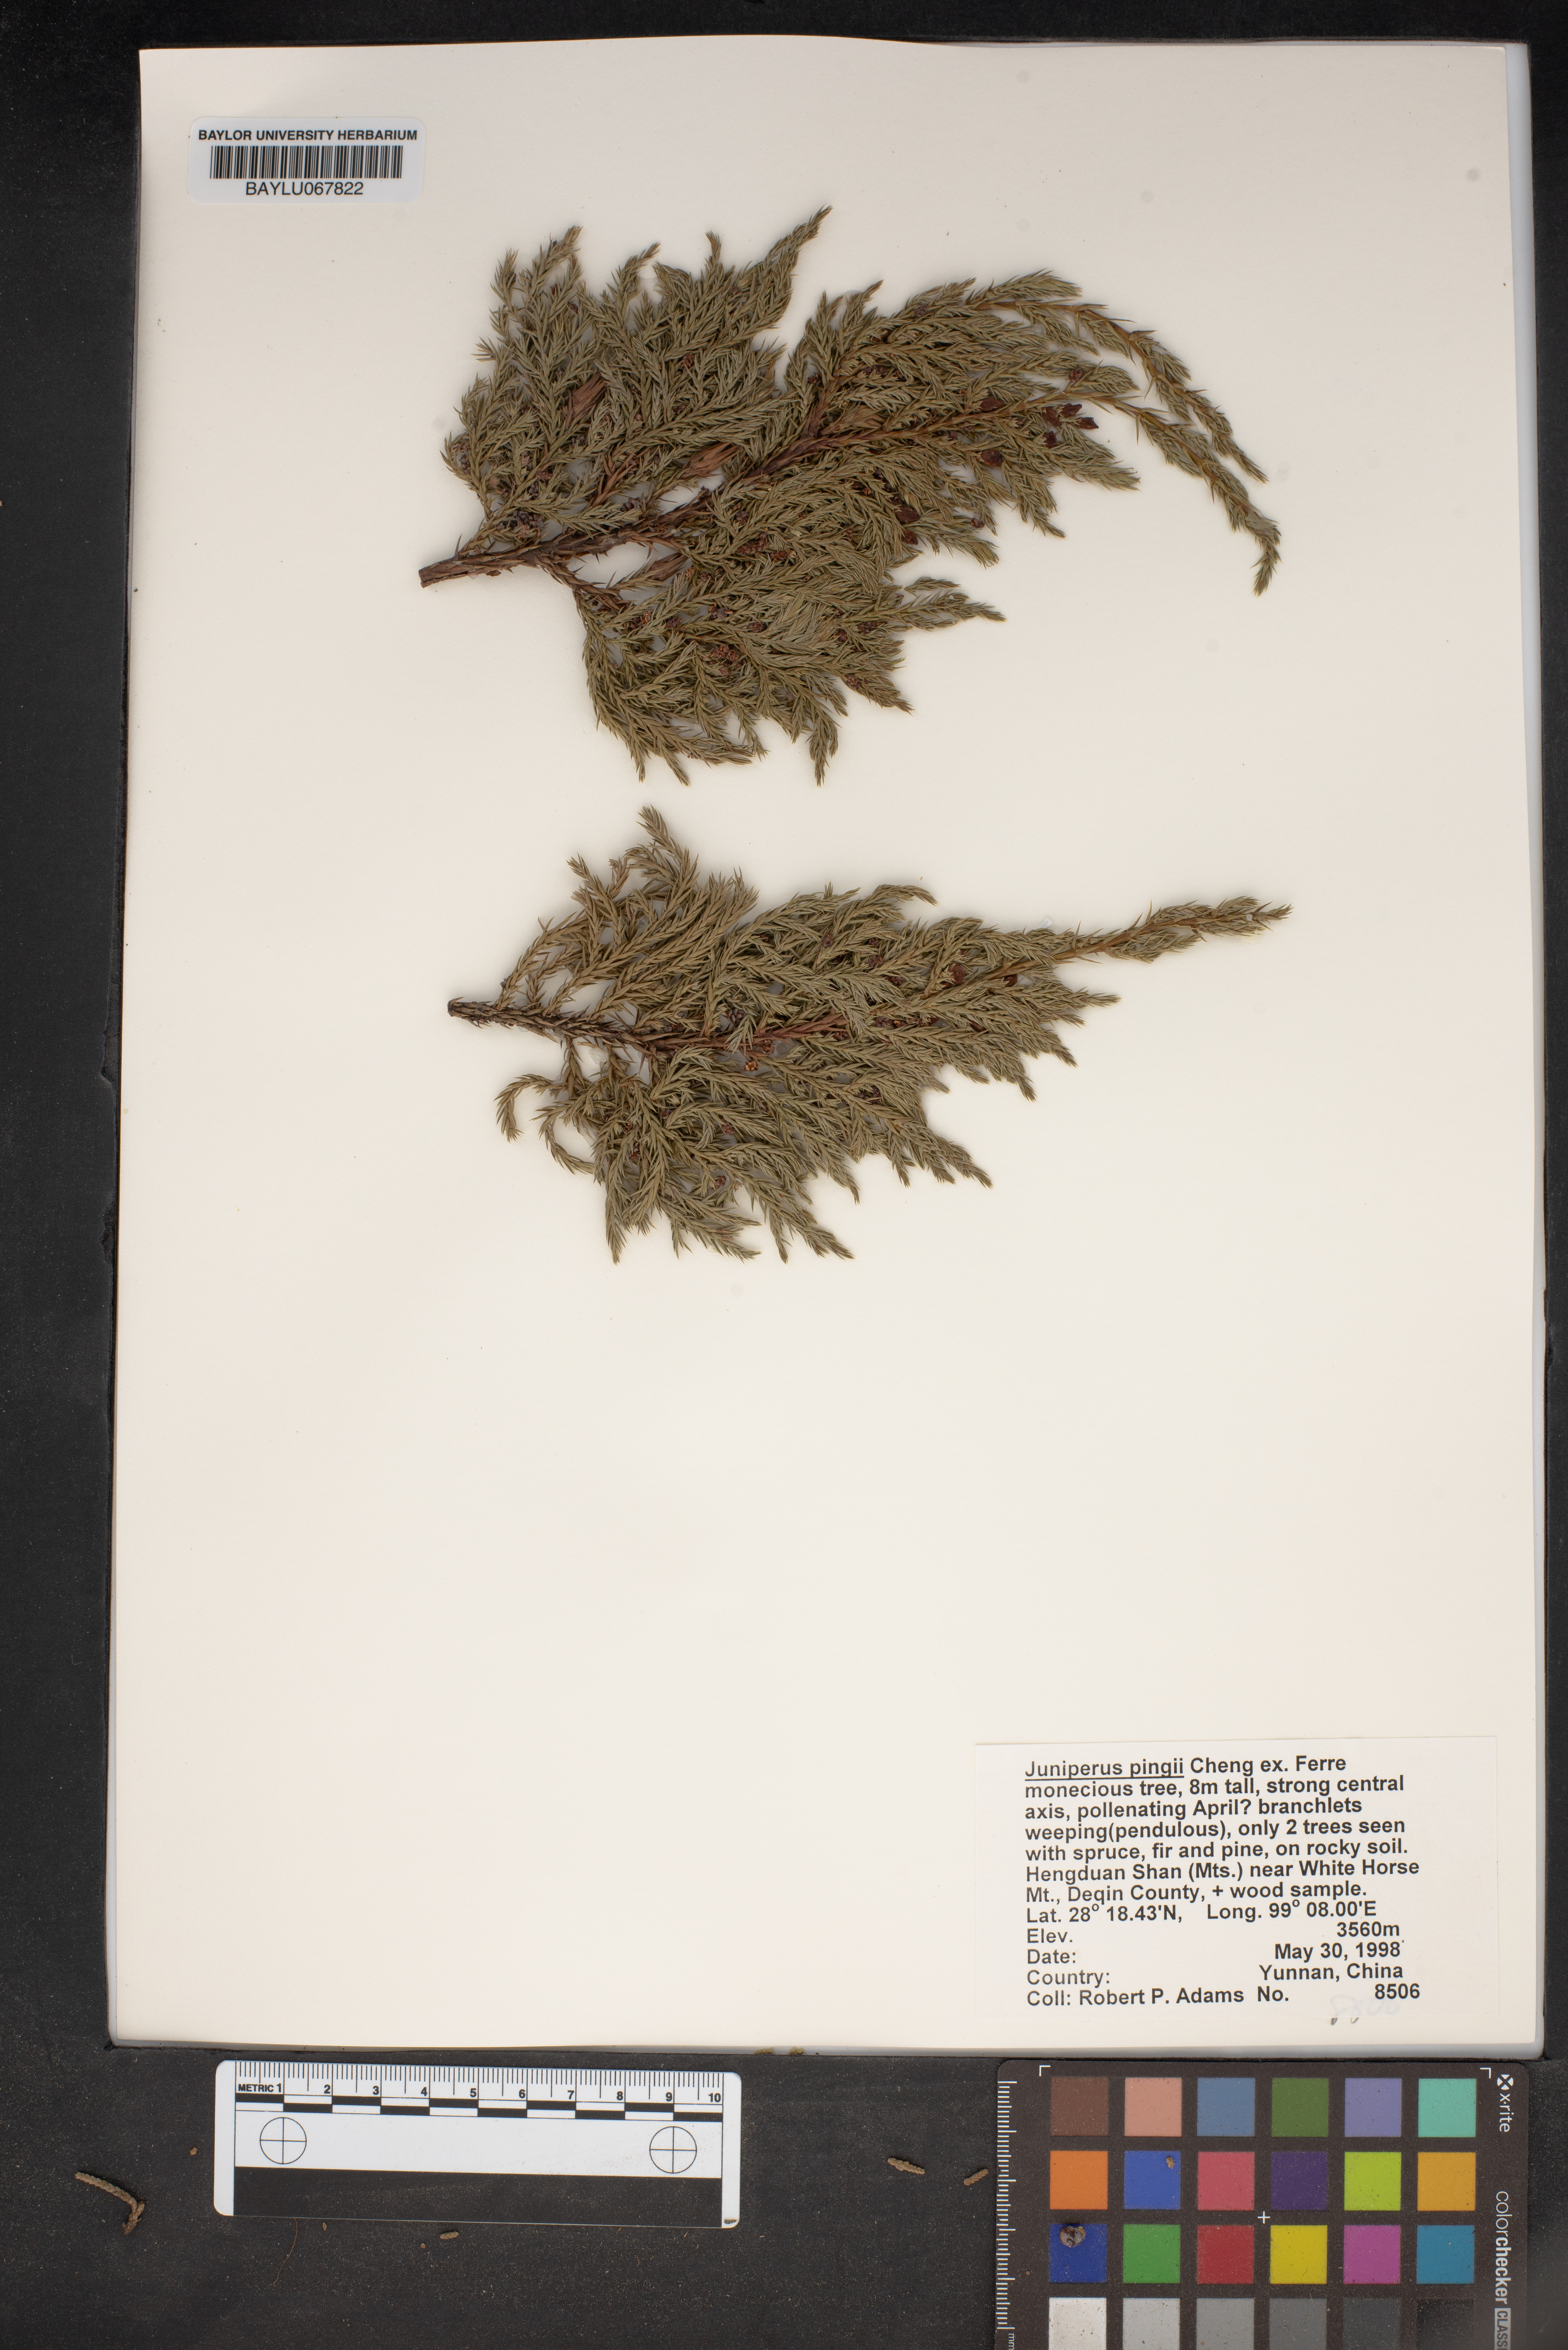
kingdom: Plantae
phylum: Tracheophyta
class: Pinopsida
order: Pinales
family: Cupressaceae
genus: Juniperus
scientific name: Juniperus pingii
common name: Ping's juniper
